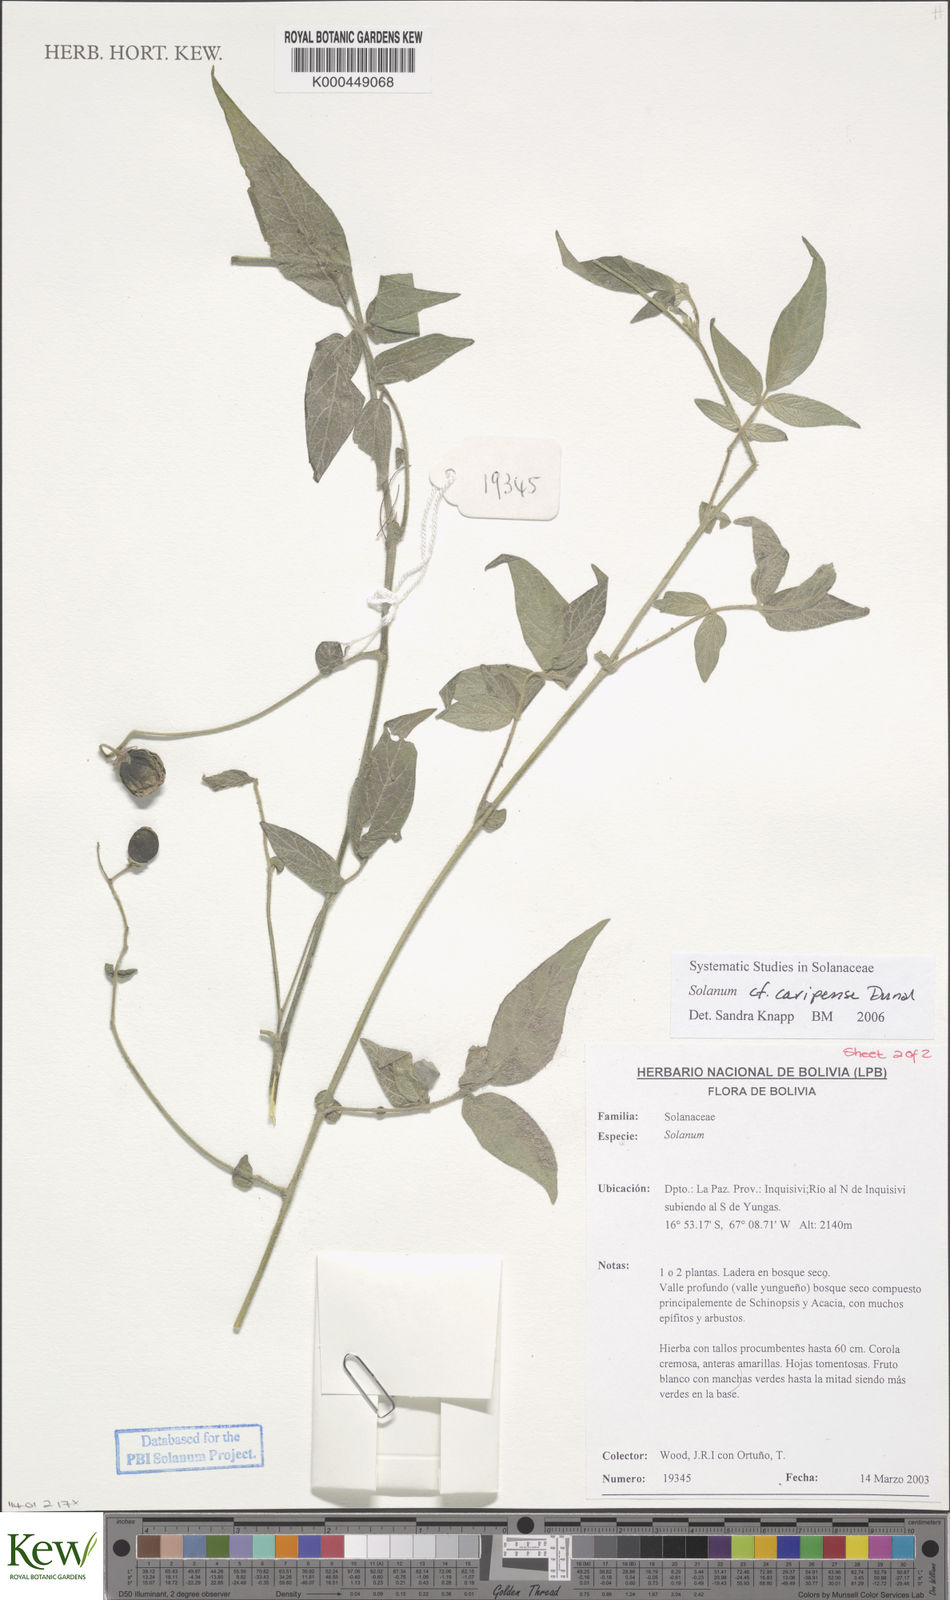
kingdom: Plantae
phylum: Tracheophyta
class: Magnoliopsida
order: Solanales
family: Solanaceae
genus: Solanum
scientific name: Solanum caripense
